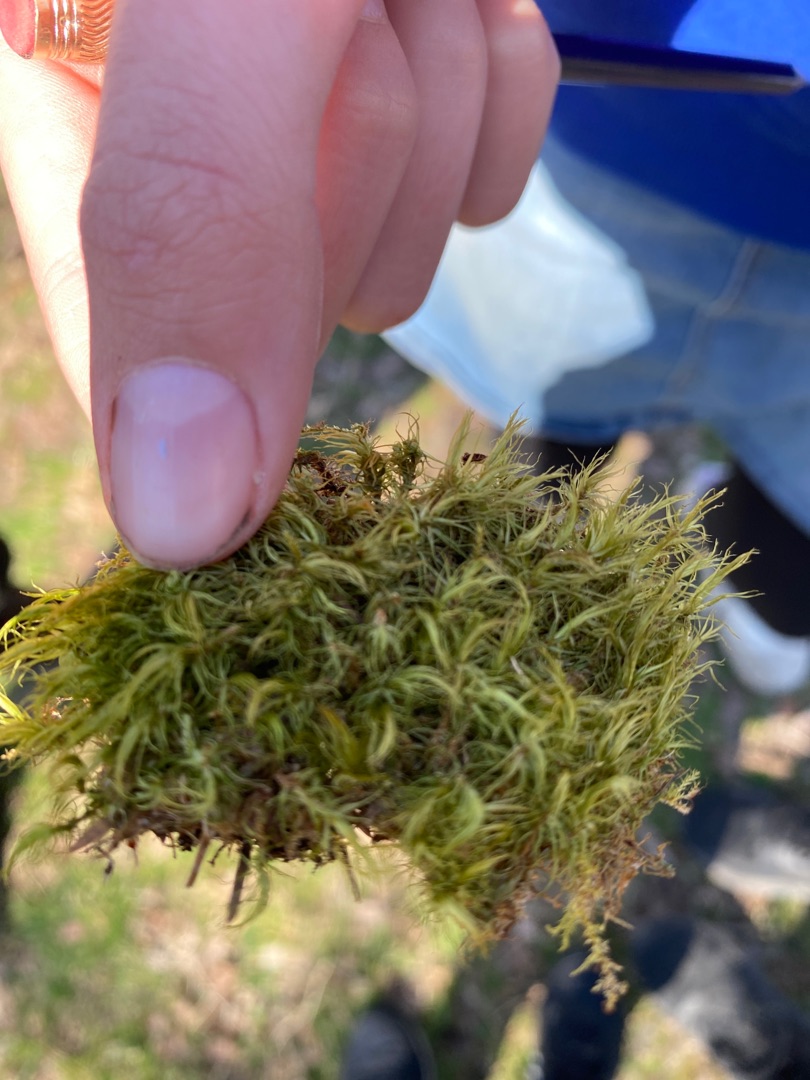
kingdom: Plantae
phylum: Bryophyta
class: Bryopsida
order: Dicranales
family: Dicranaceae
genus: Dicranum
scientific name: Dicranum
